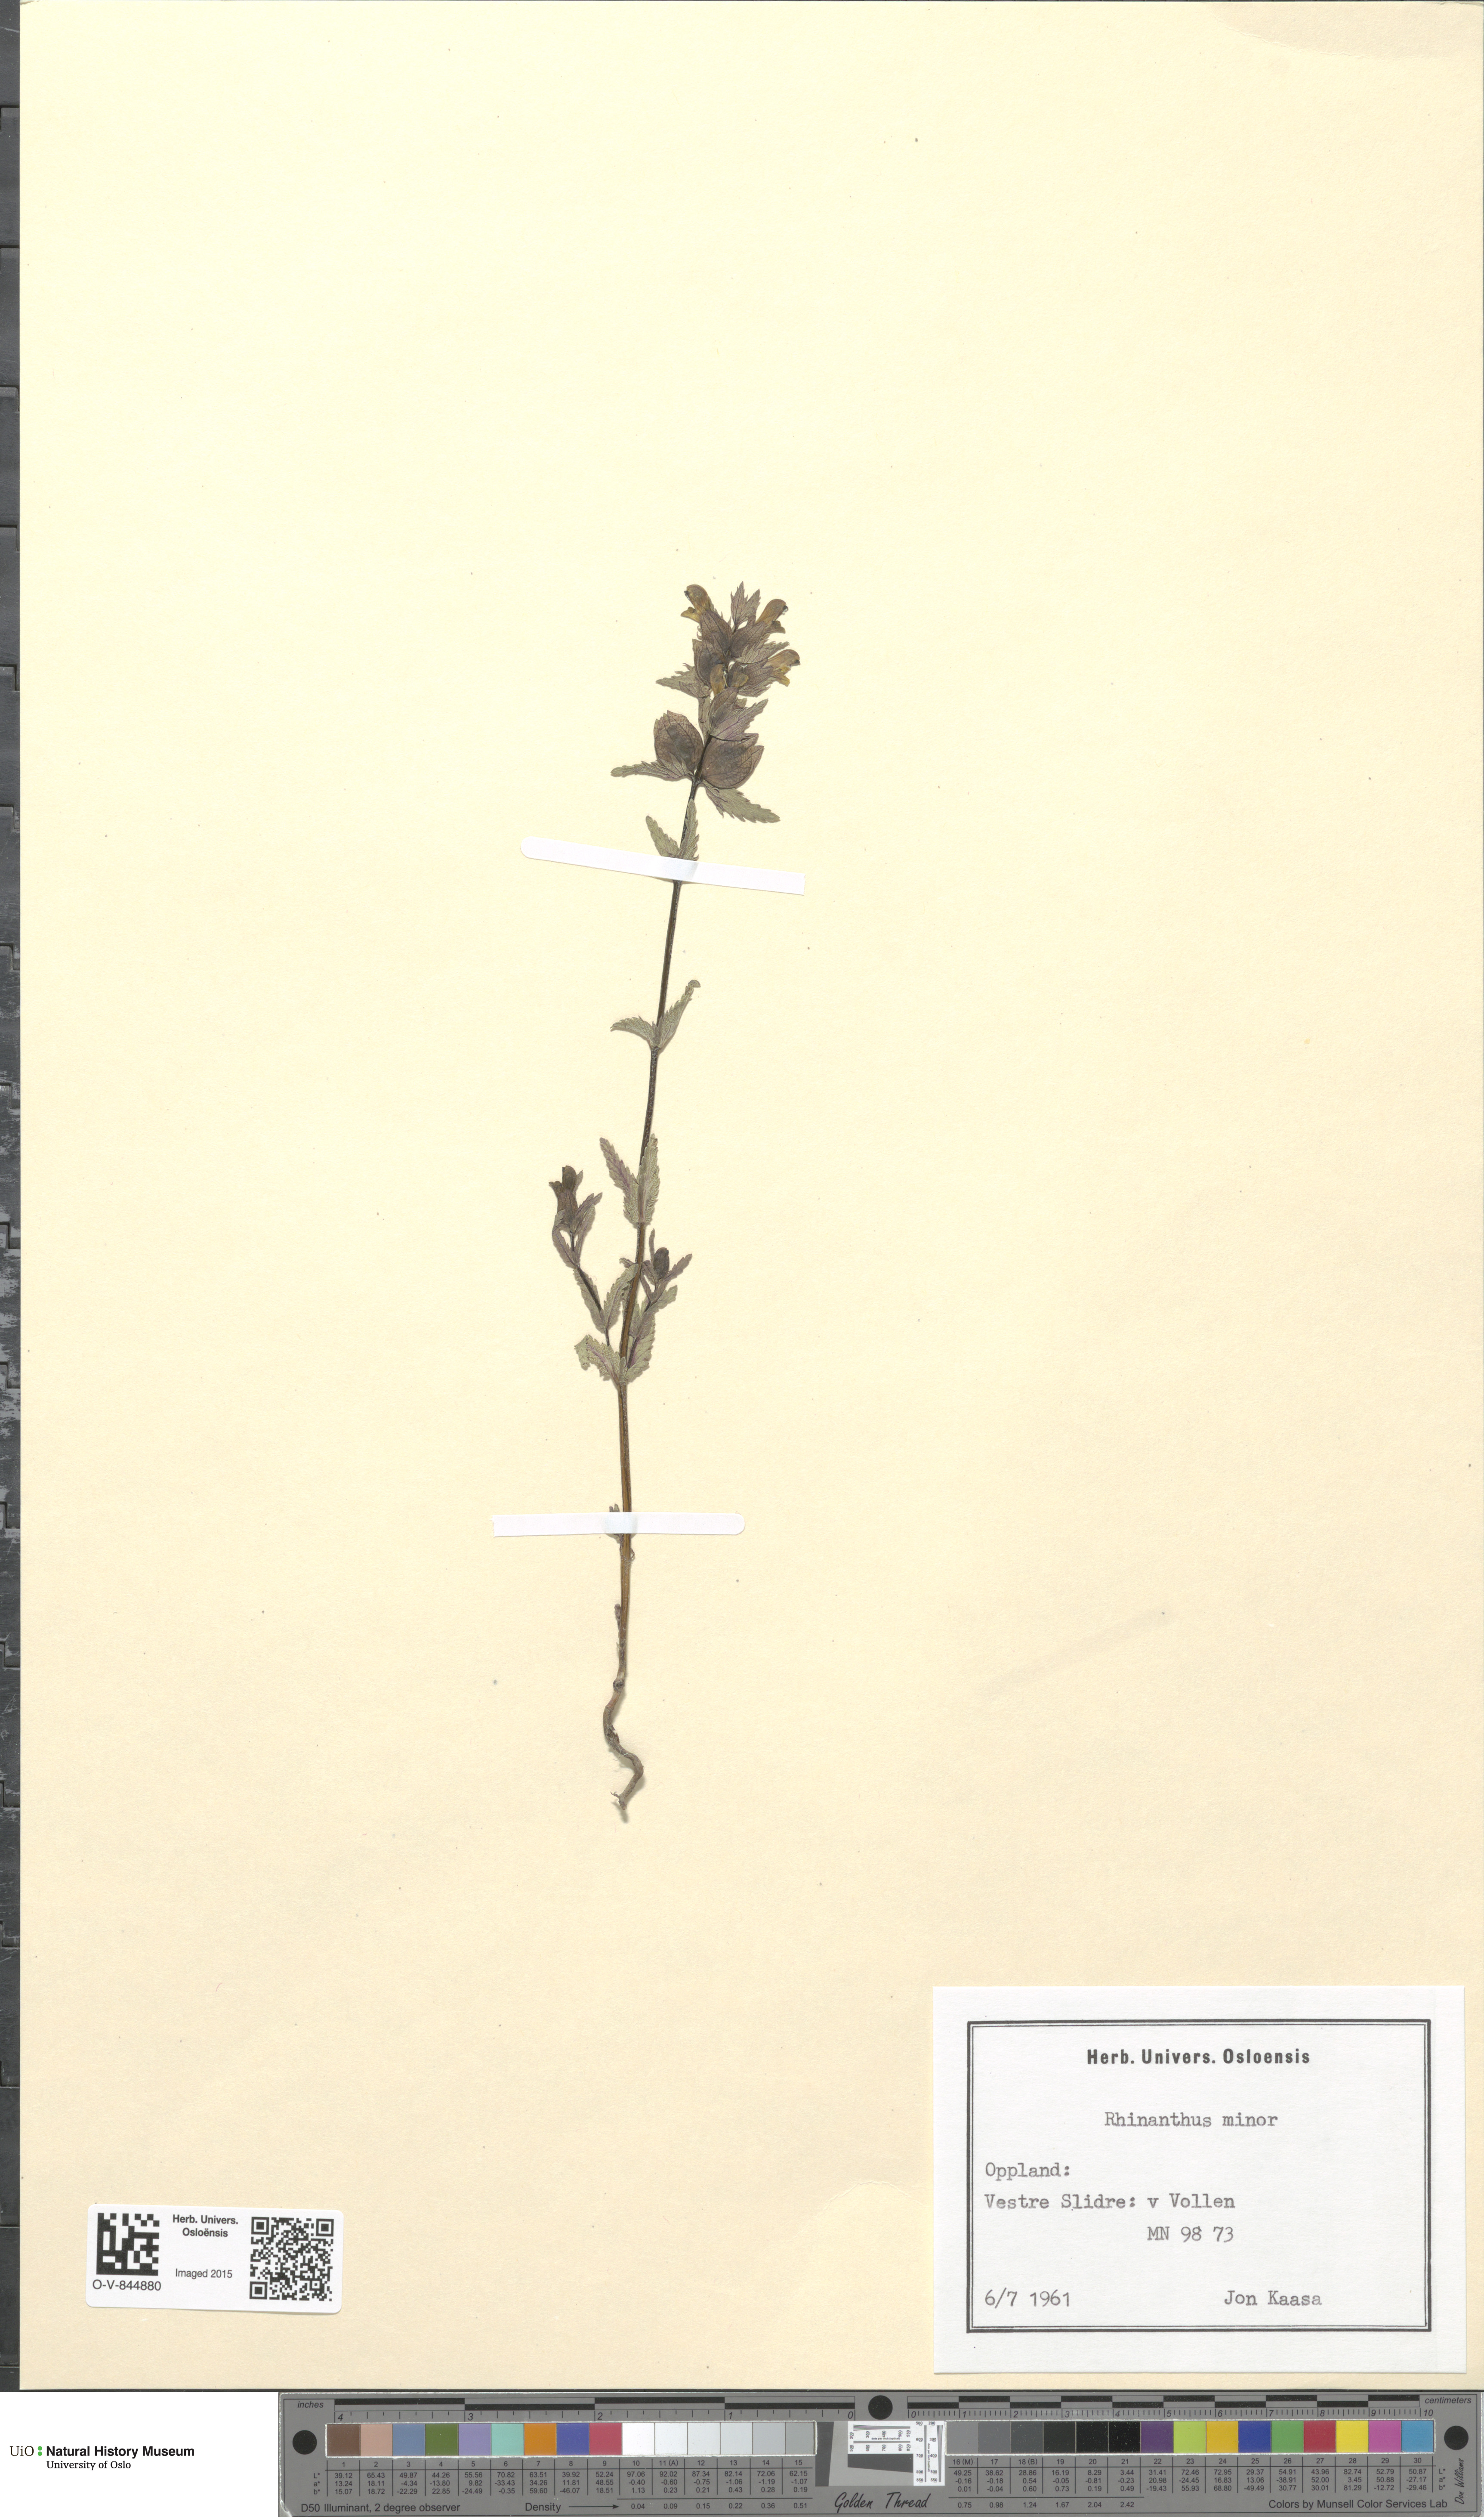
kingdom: Plantae
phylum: Tracheophyta
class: Magnoliopsida
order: Lamiales
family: Orobanchaceae
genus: Rhinanthus
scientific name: Rhinanthus minor
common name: Yellow-rattle
